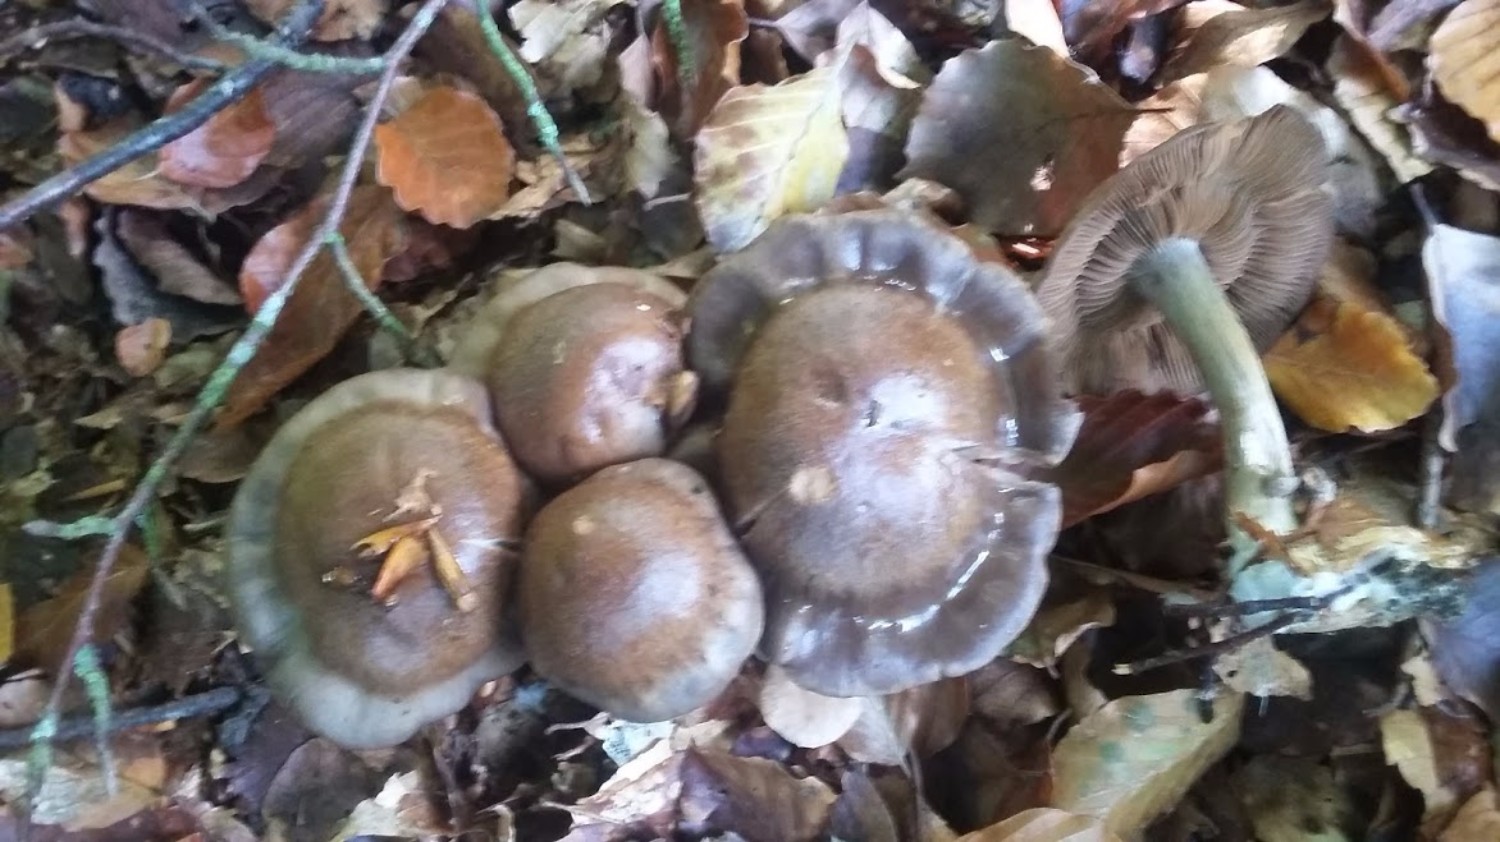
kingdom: Fungi
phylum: Basidiomycota
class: Agaricomycetes
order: Agaricales
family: Cortinariaceae
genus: Cortinarius
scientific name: Cortinarius
